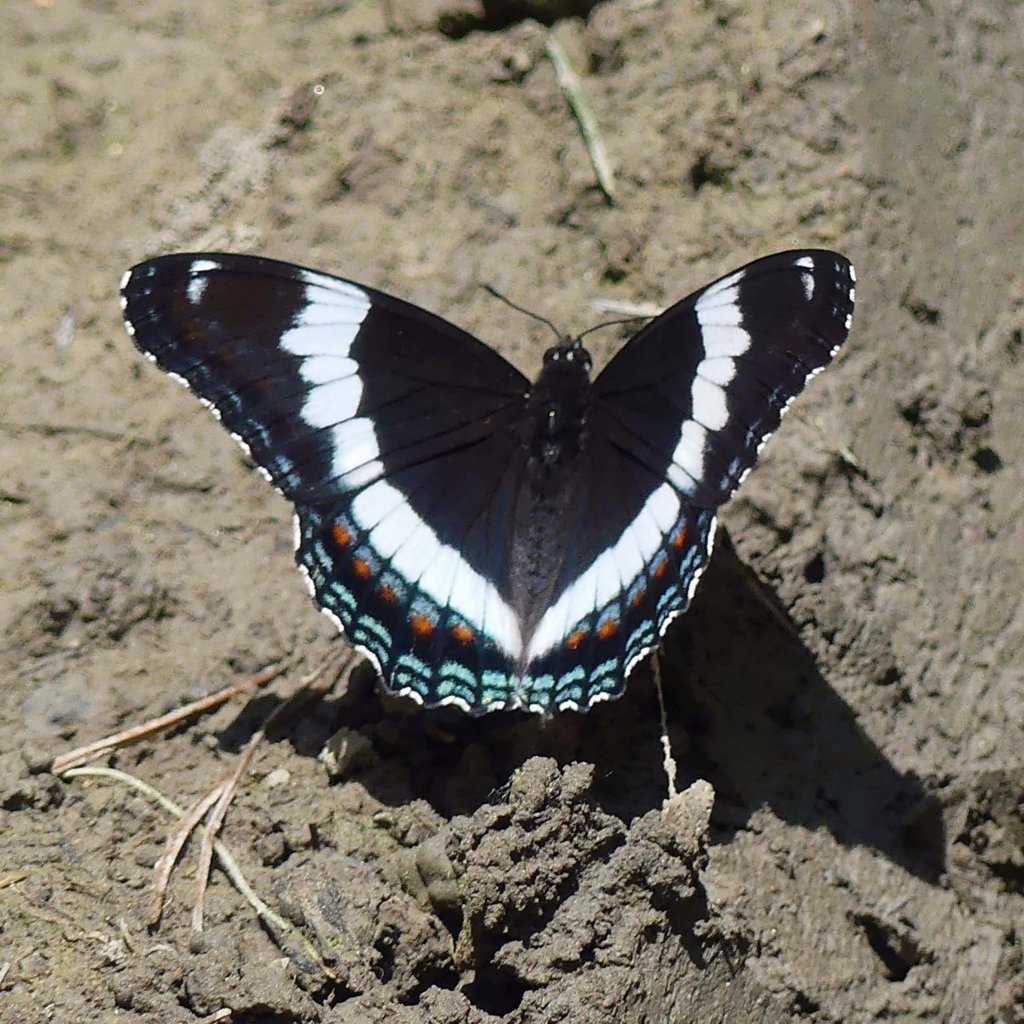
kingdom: Animalia
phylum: Arthropoda
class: Insecta
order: Lepidoptera
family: Nymphalidae
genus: Limenitis
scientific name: Limenitis arthemis
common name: Red-spotted Admiral
